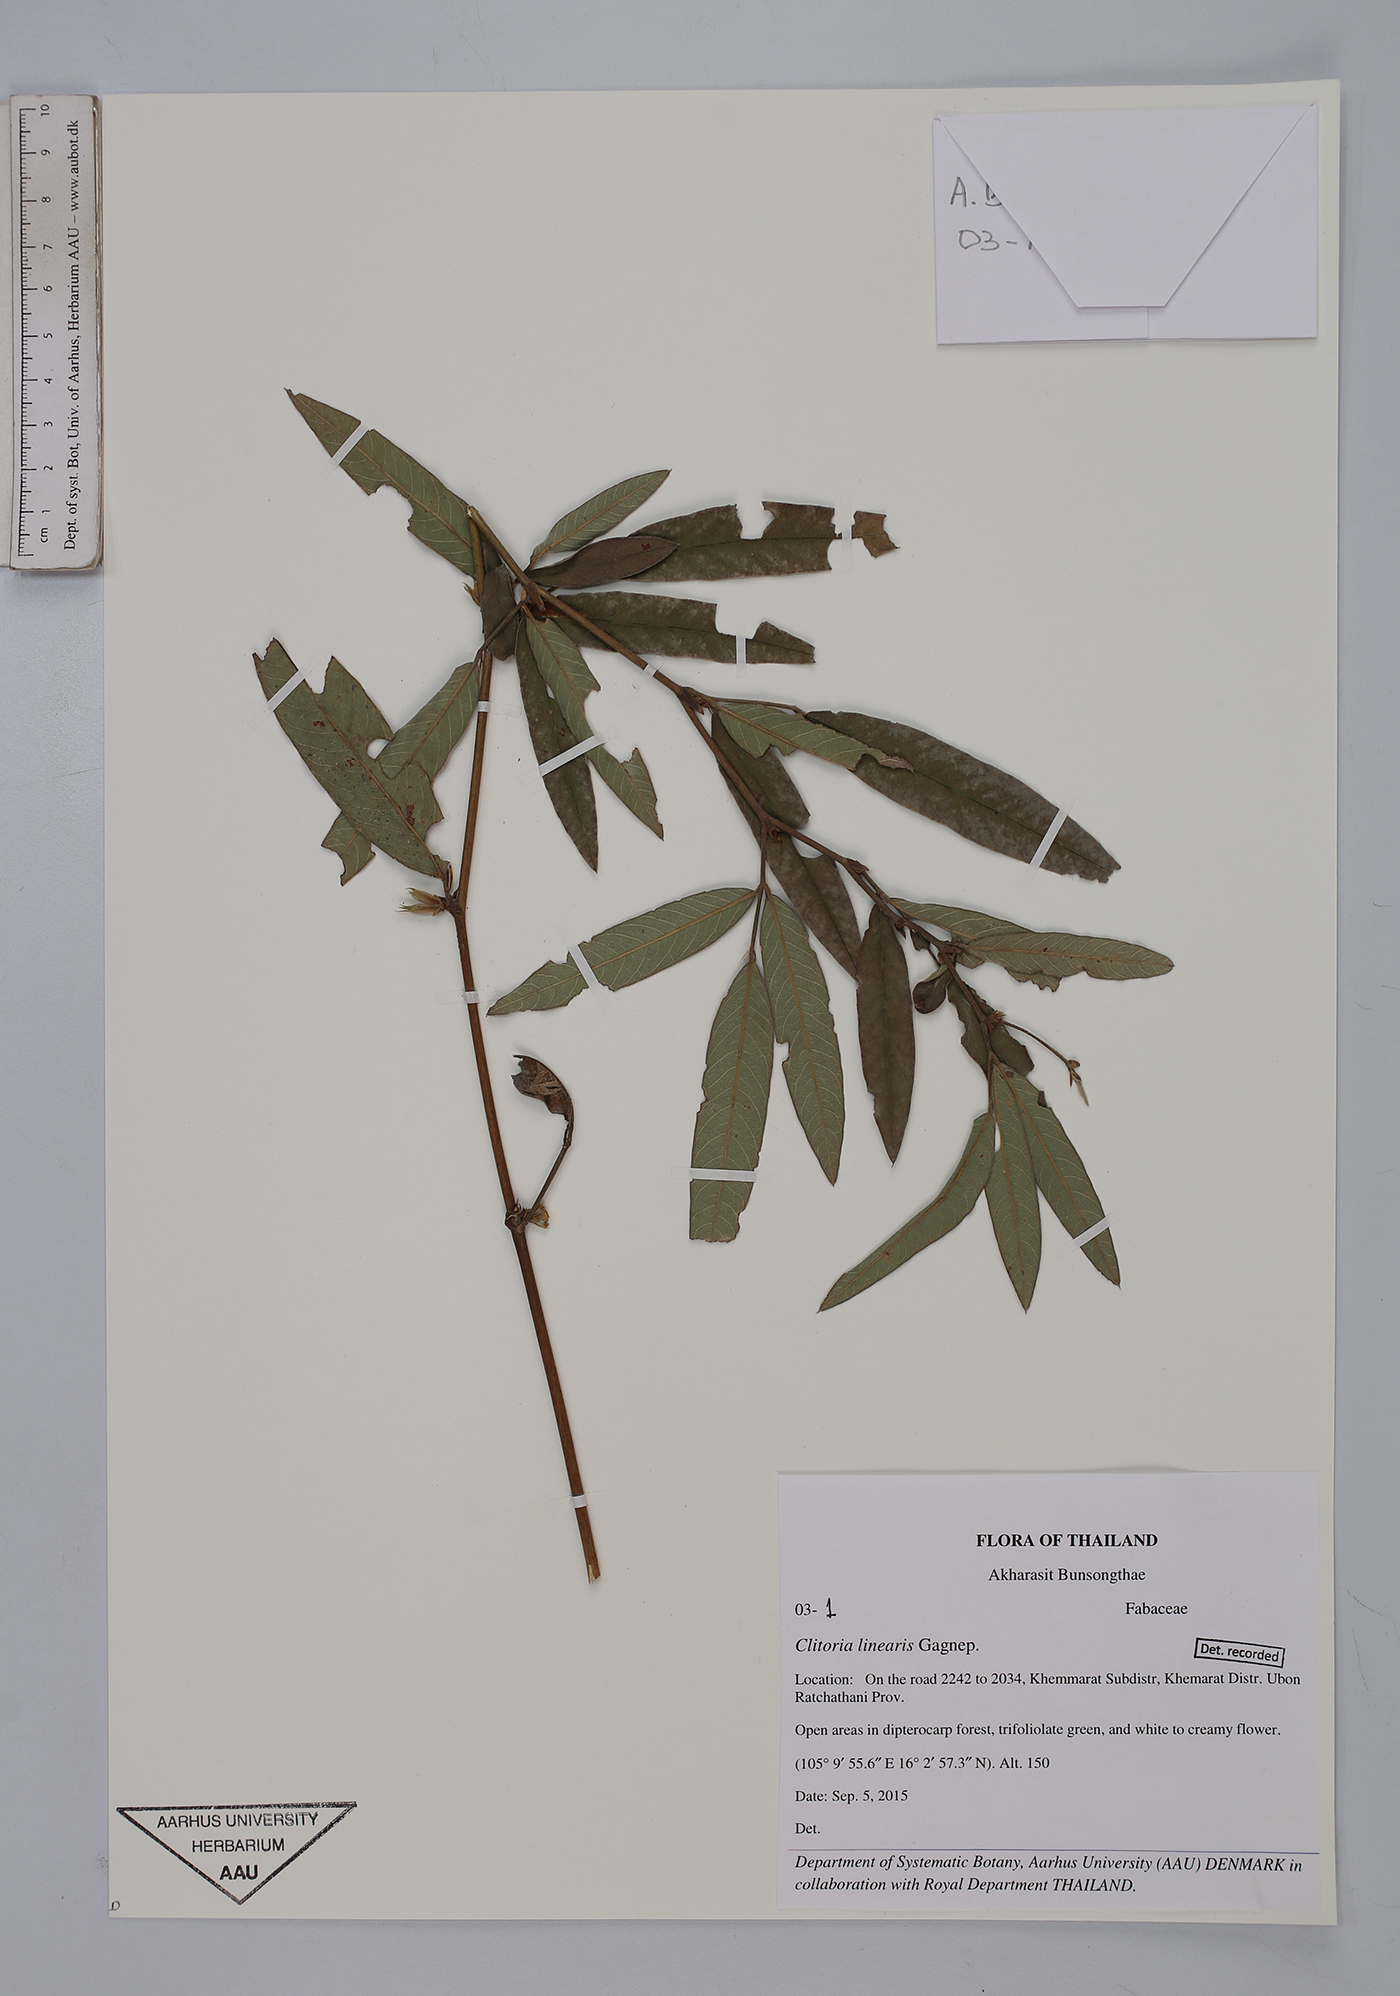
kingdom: Plantae
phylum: Tracheophyta
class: Magnoliopsida
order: Fabales
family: Fabaceae
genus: Clitoria
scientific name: Clitoria linearis
